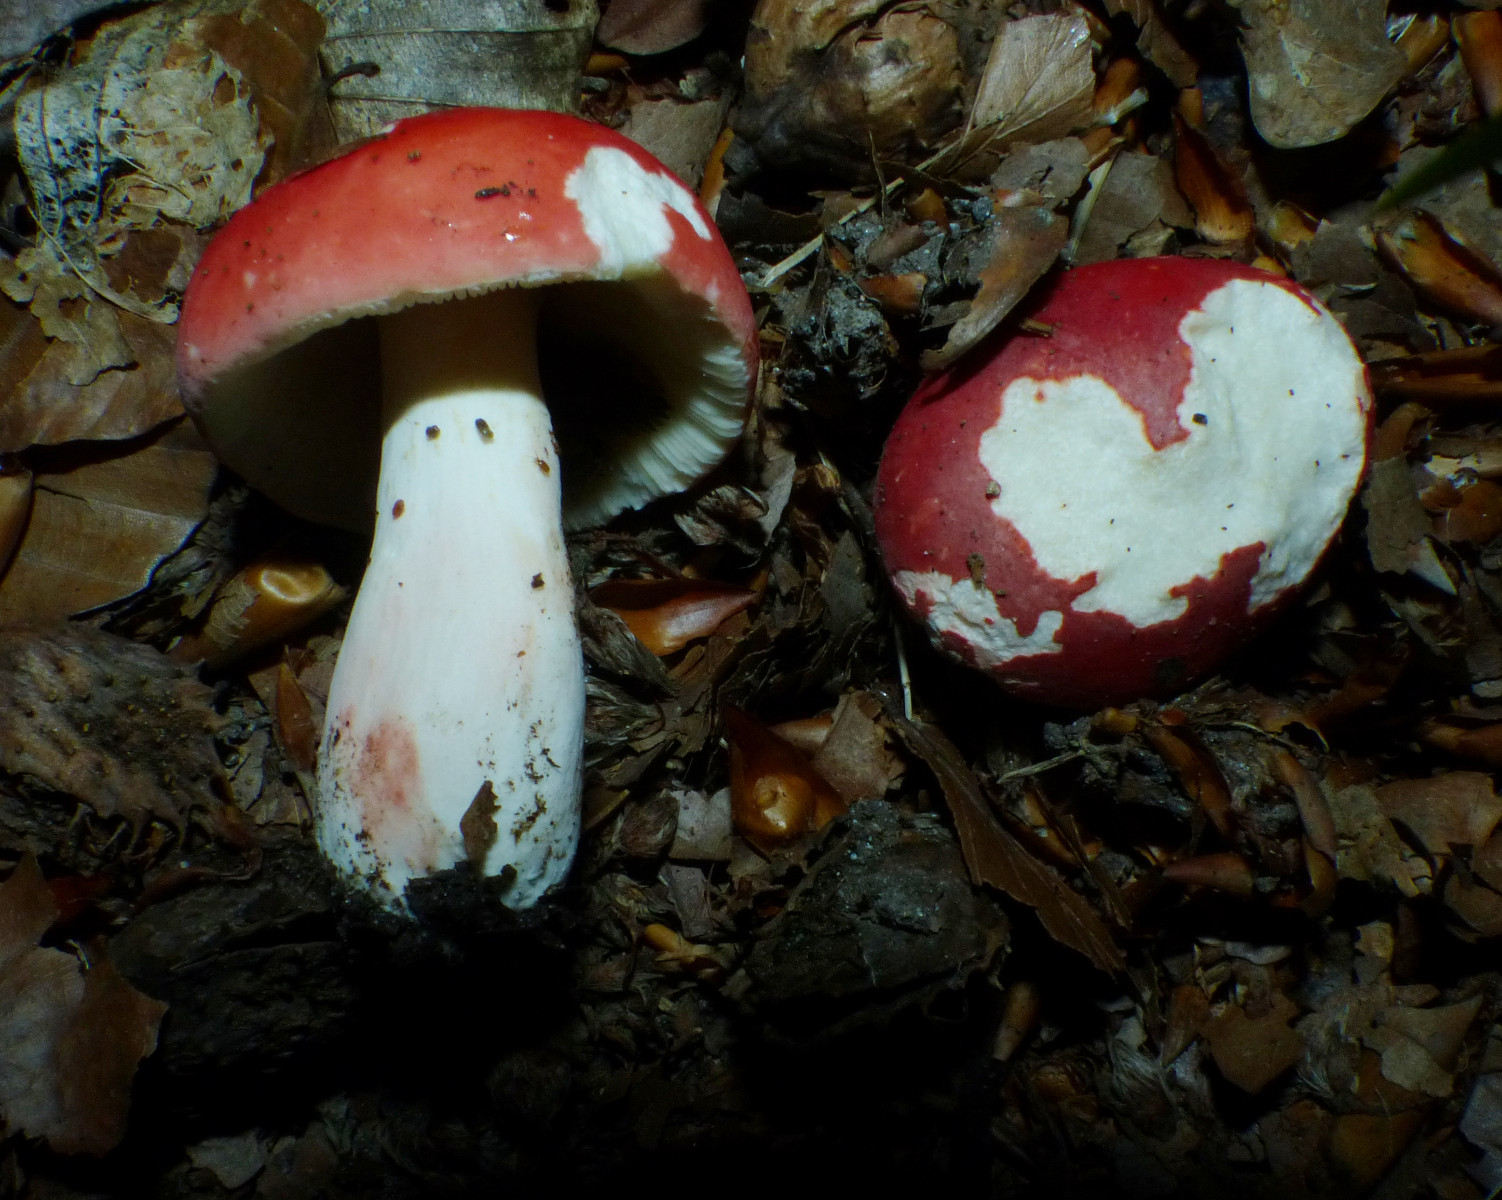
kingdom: Fungi
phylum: Basidiomycota
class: Agaricomycetes
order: Russulales
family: Russulaceae
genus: Russula
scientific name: Russula rosea
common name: fastkødet skørhat
